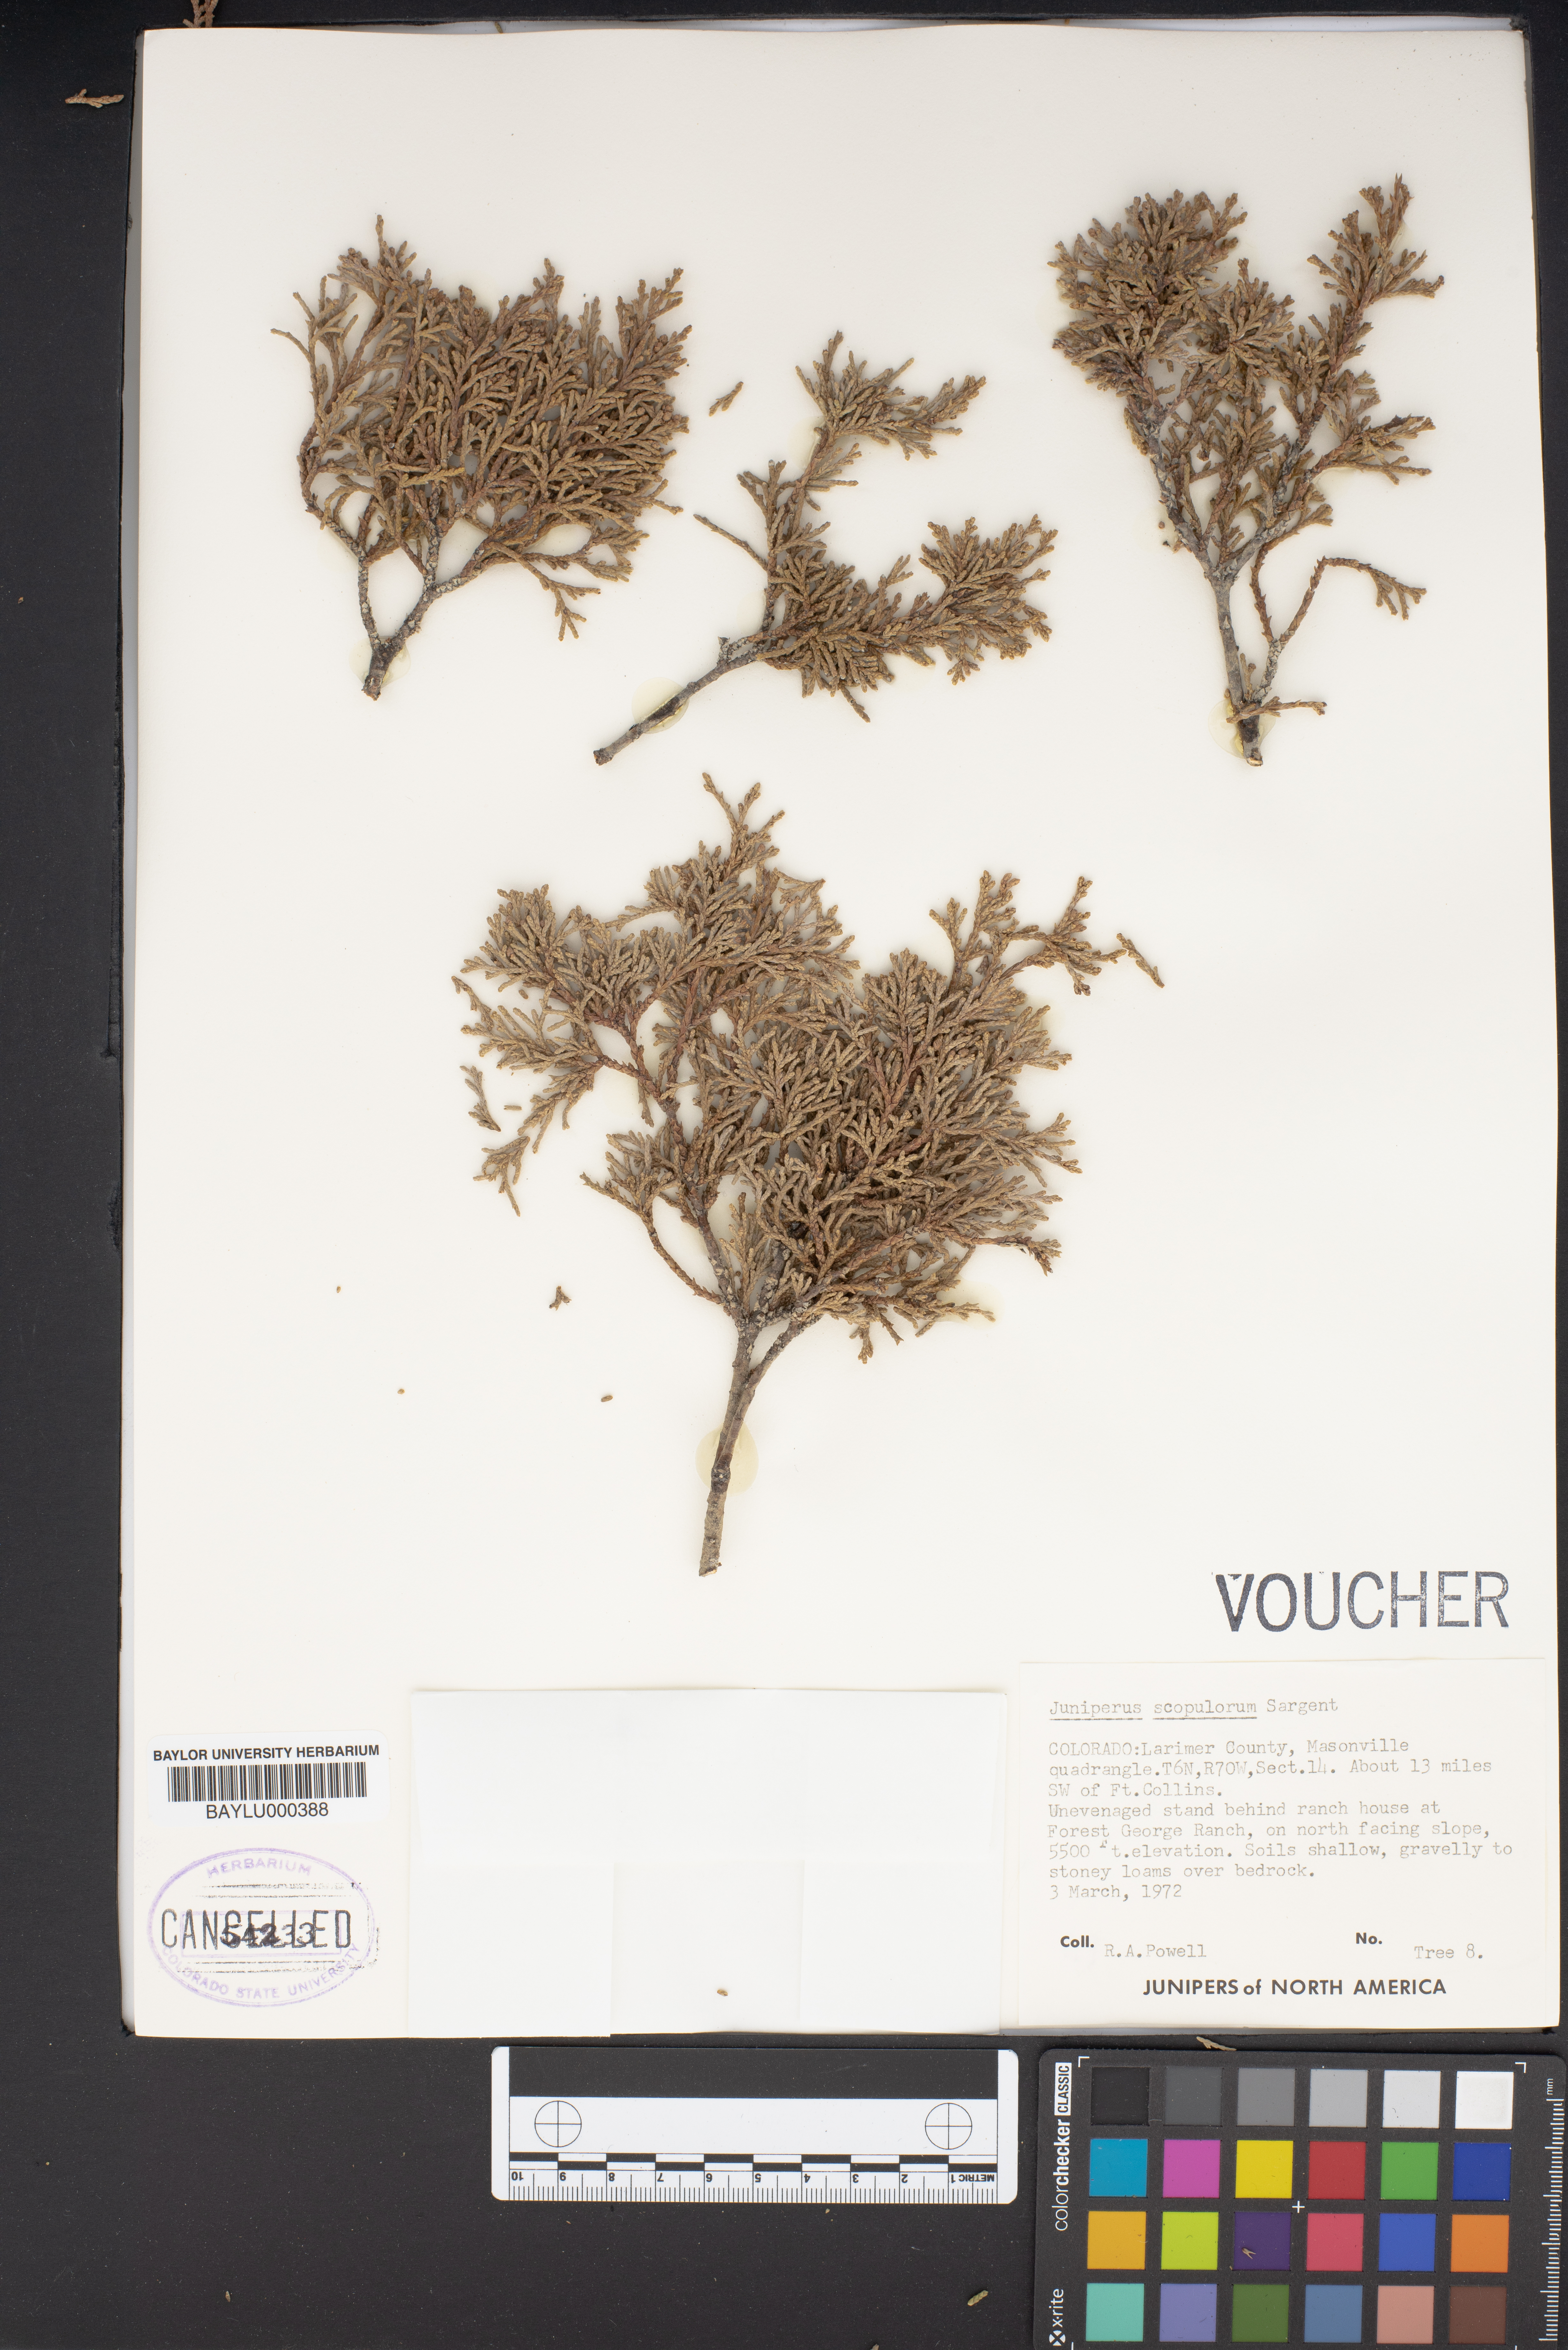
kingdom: Plantae
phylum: Tracheophyta
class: Pinopsida
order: Pinales
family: Cupressaceae
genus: Juniperus
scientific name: Juniperus scopulorum
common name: Rocky mountain juniper
